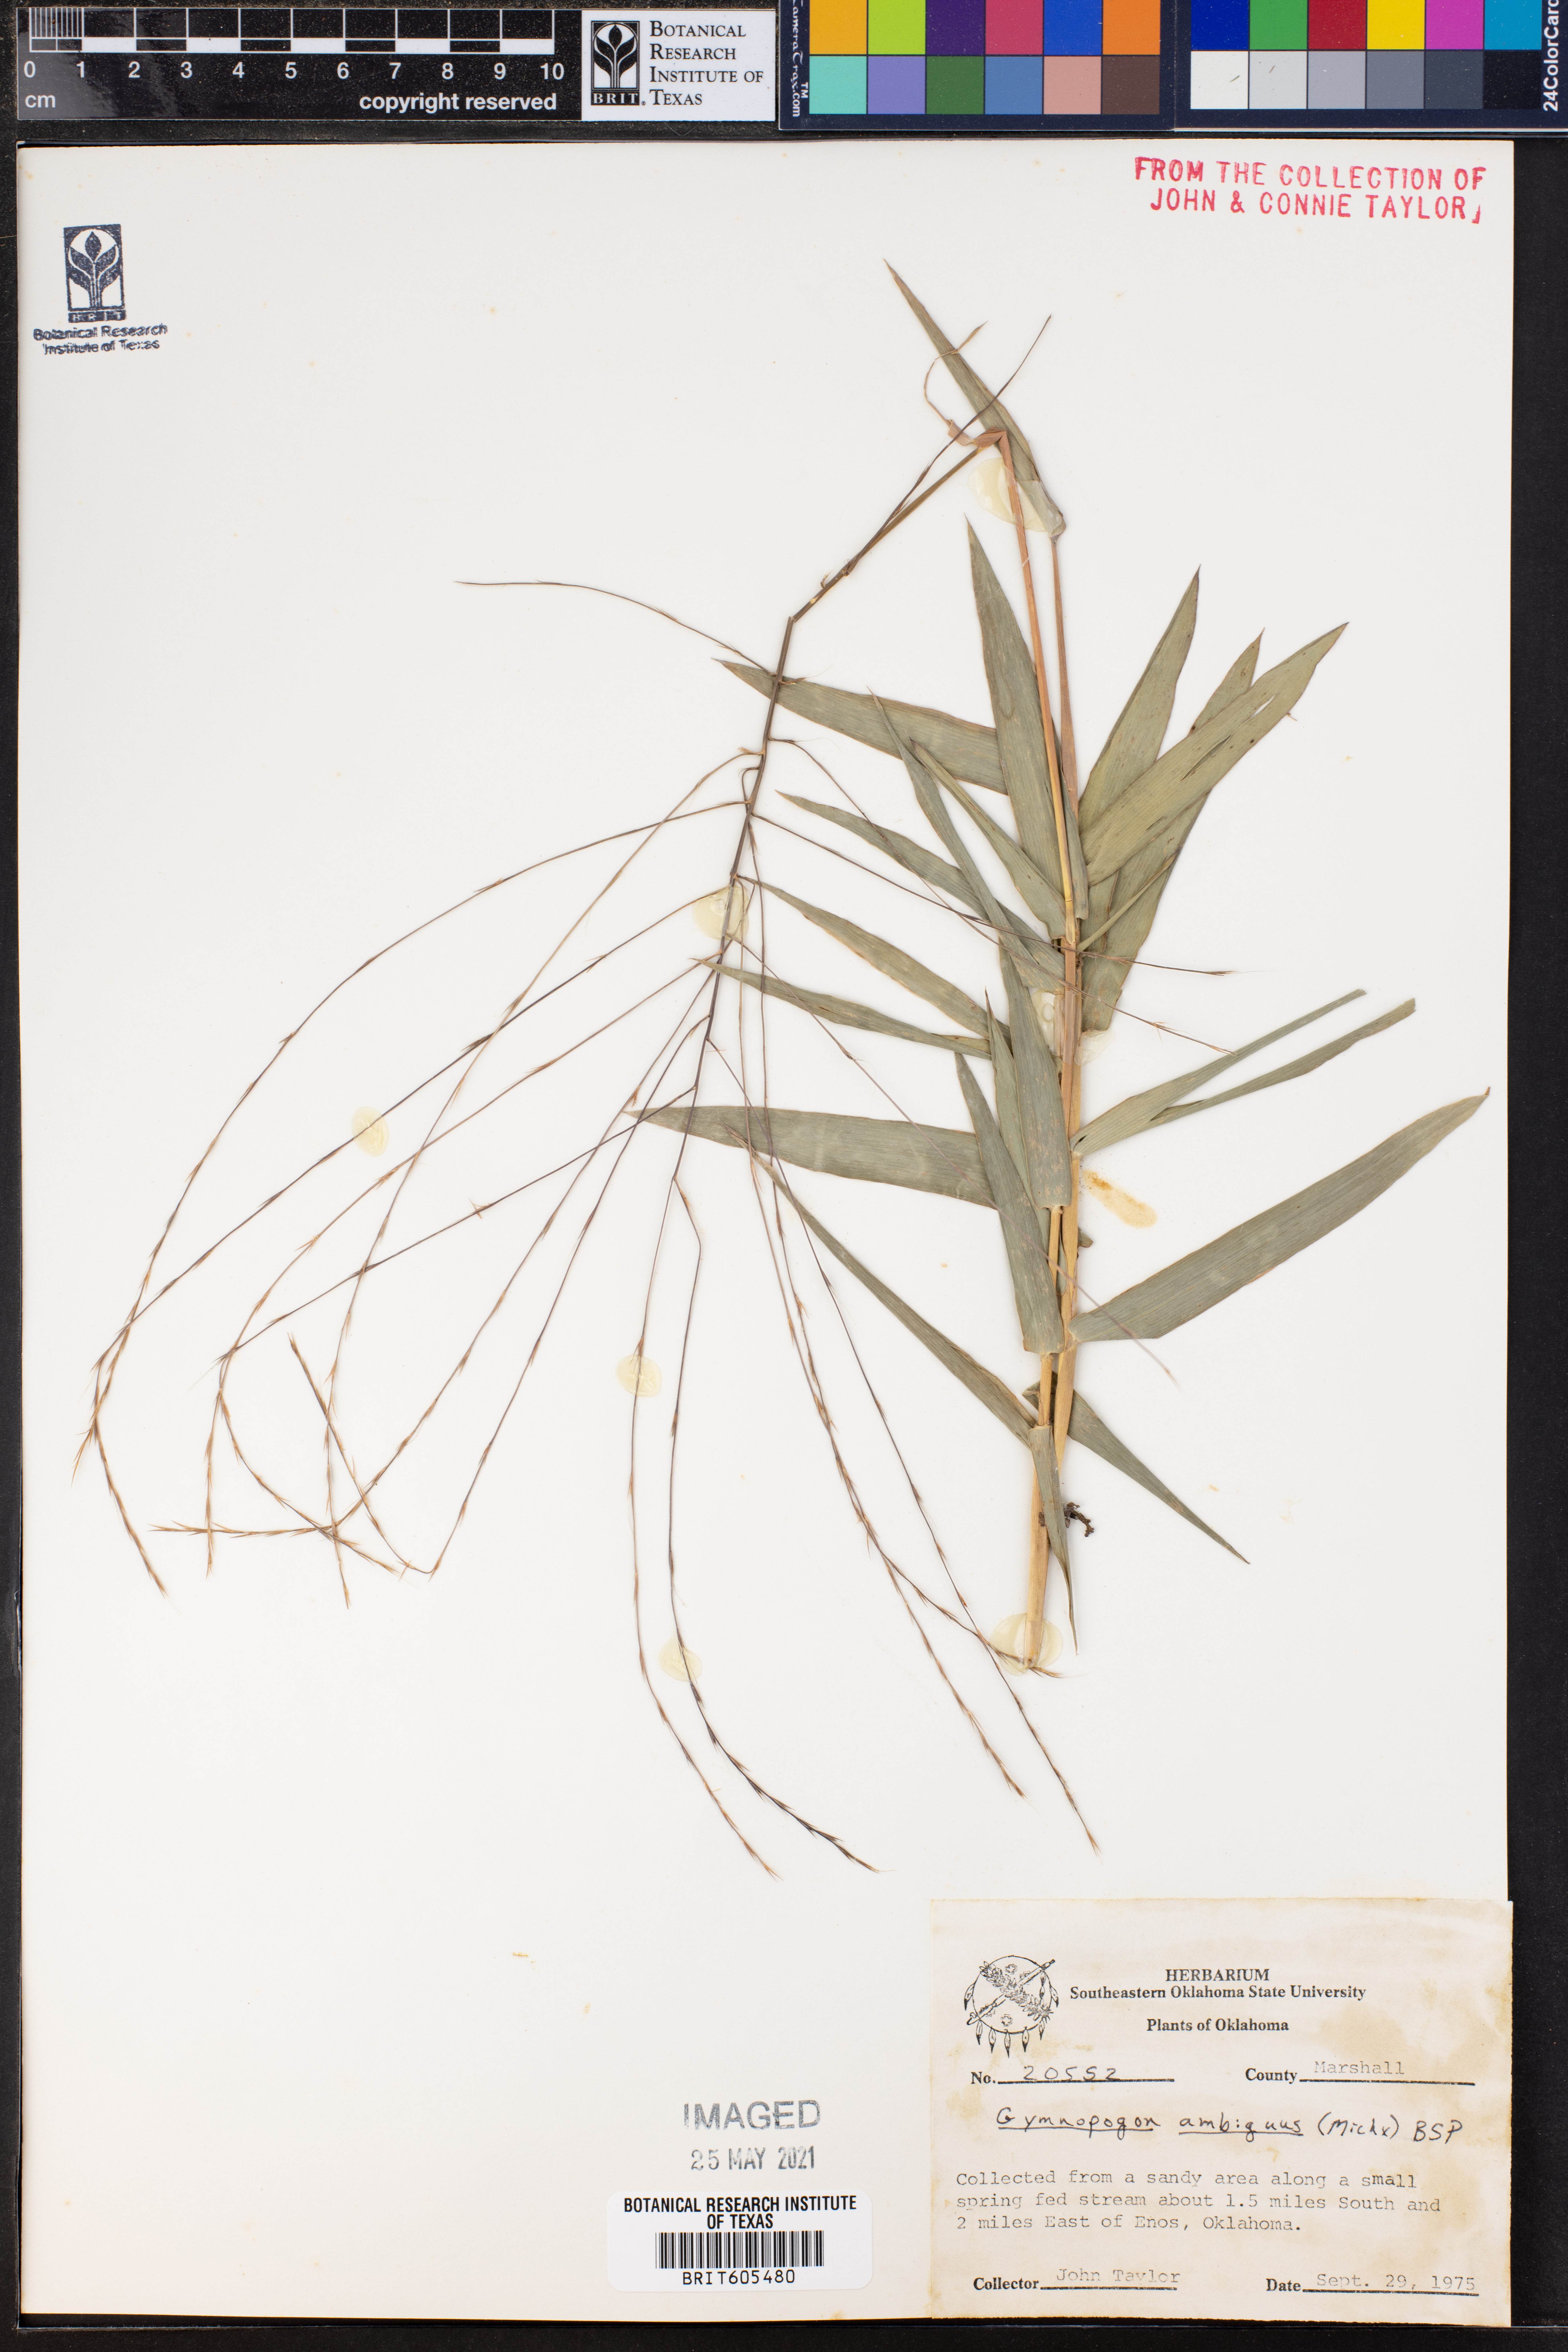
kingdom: Plantae
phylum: Tracheophyta
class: Liliopsida
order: Poales
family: Poaceae
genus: Gymnopogon
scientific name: Gymnopogon ambiguus
